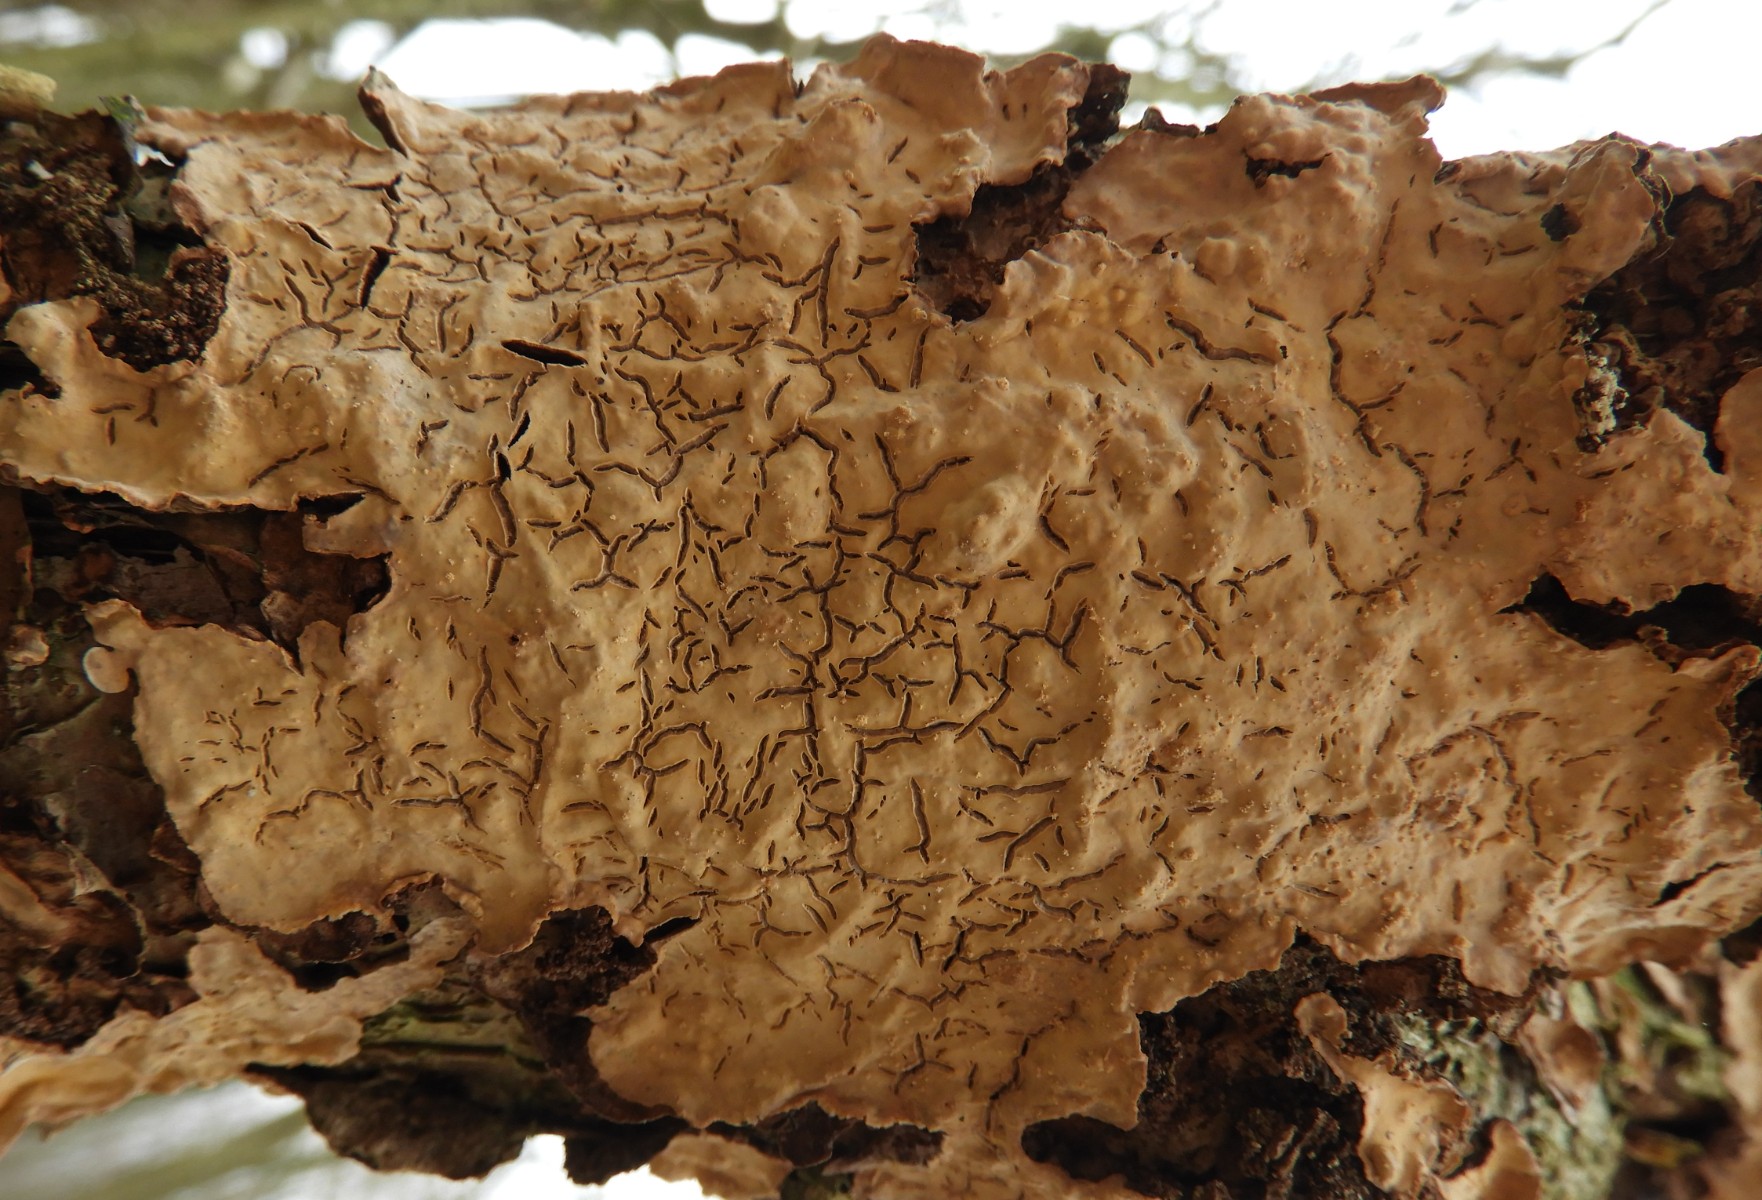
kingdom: Fungi
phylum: Basidiomycota
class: Agaricomycetes
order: Agaricales
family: Physalacriaceae
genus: Cylindrobasidium
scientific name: Cylindrobasidium evolvens
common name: sprækkehinde
